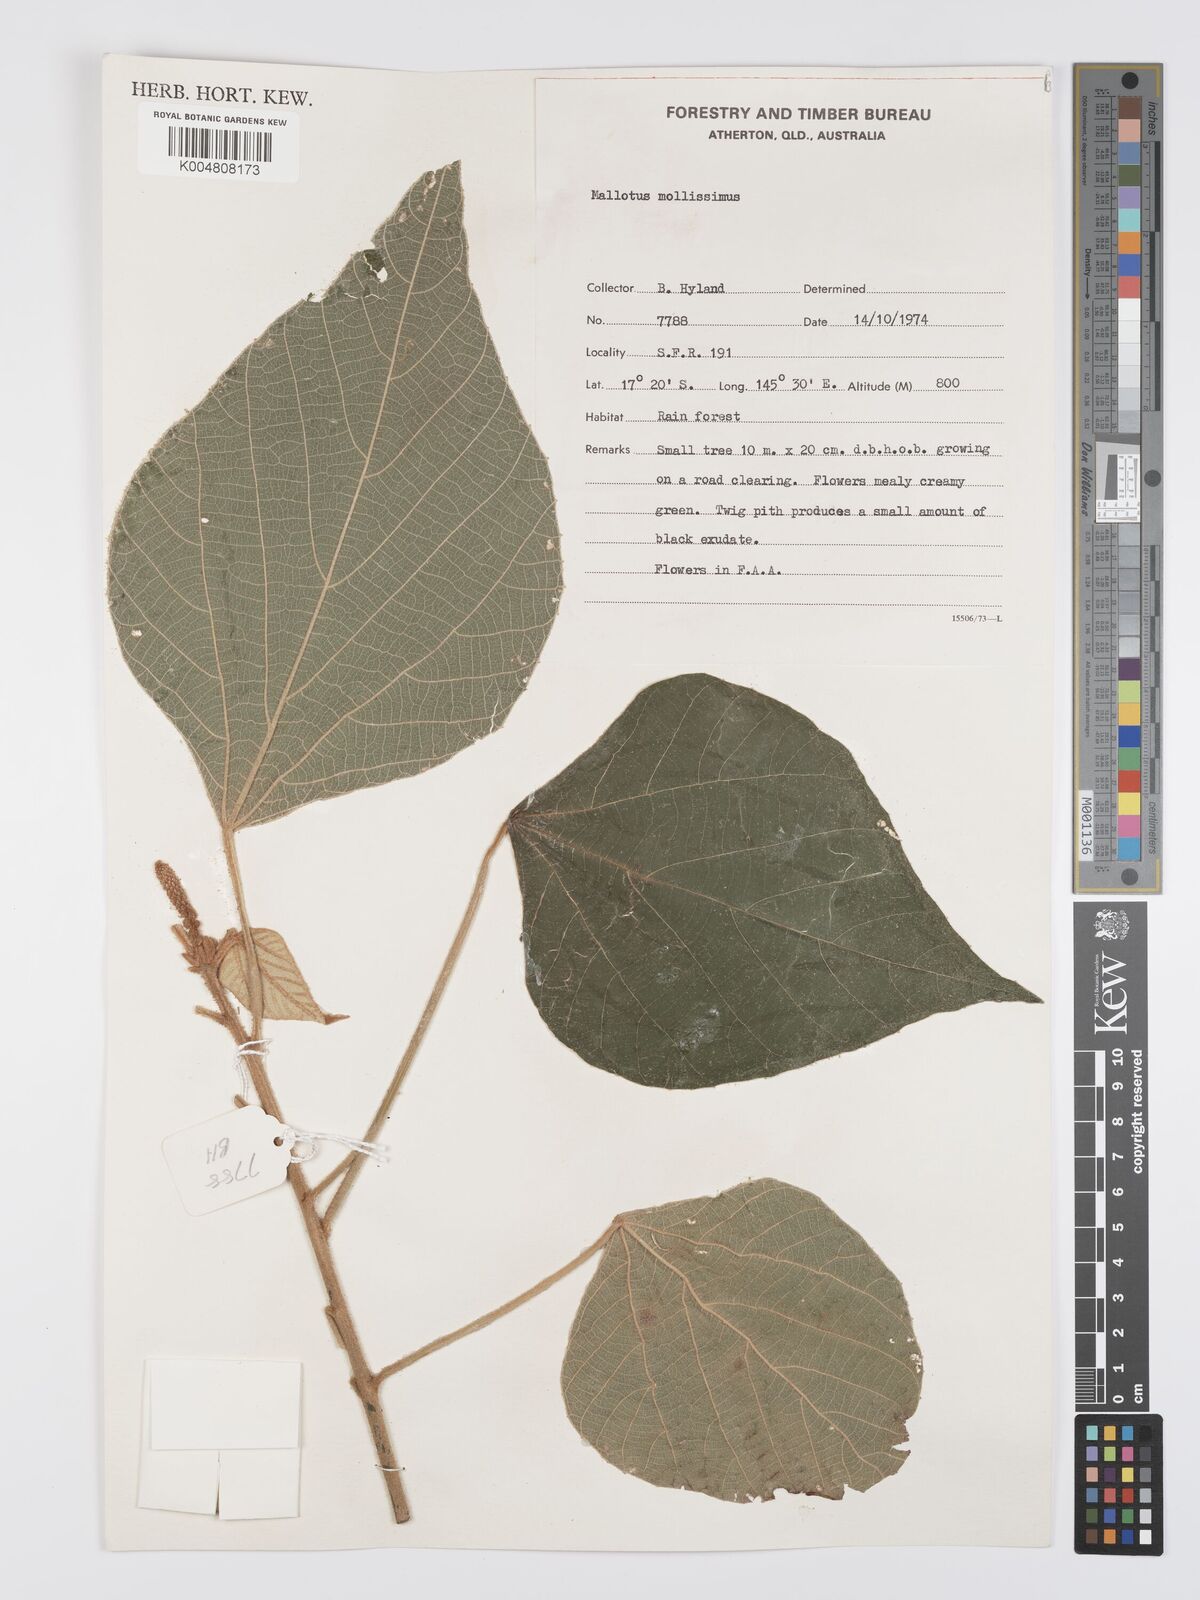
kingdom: Plantae
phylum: Tracheophyta
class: Magnoliopsida
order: Malpighiales
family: Euphorbiaceae
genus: Mallotus
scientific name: Mallotus mollissimus
